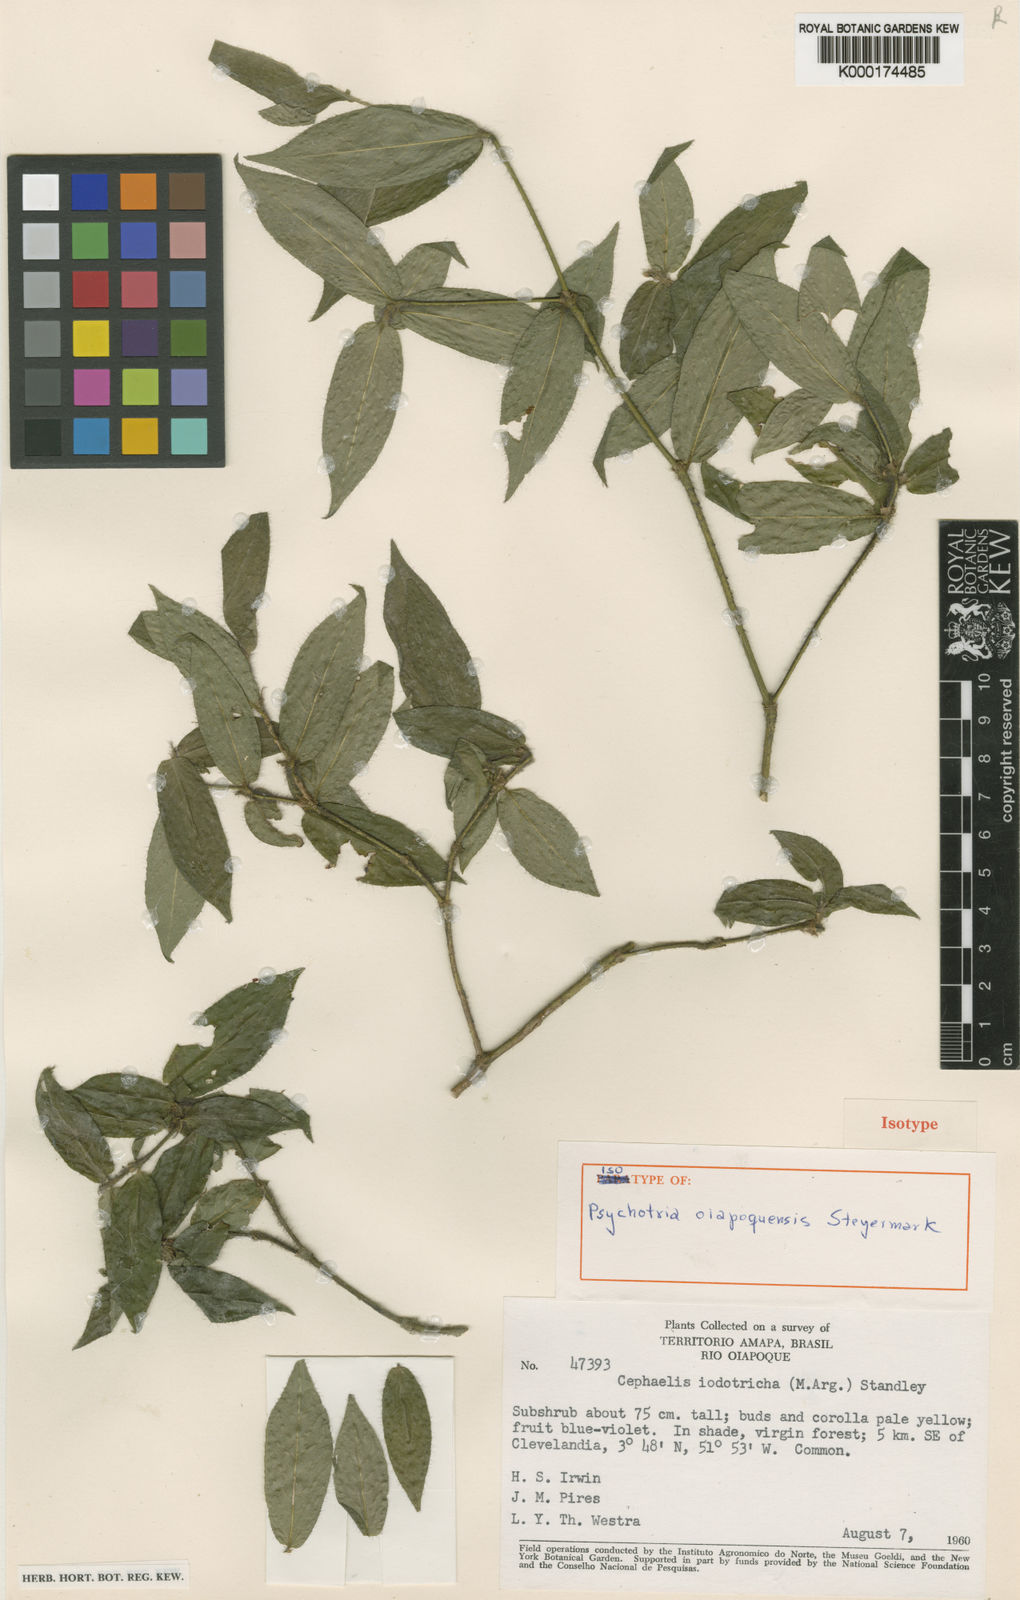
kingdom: Plantae
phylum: Tracheophyta
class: Magnoliopsida
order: Gentianales
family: Rubiaceae
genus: Palicourea
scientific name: Palicourea callithrix
